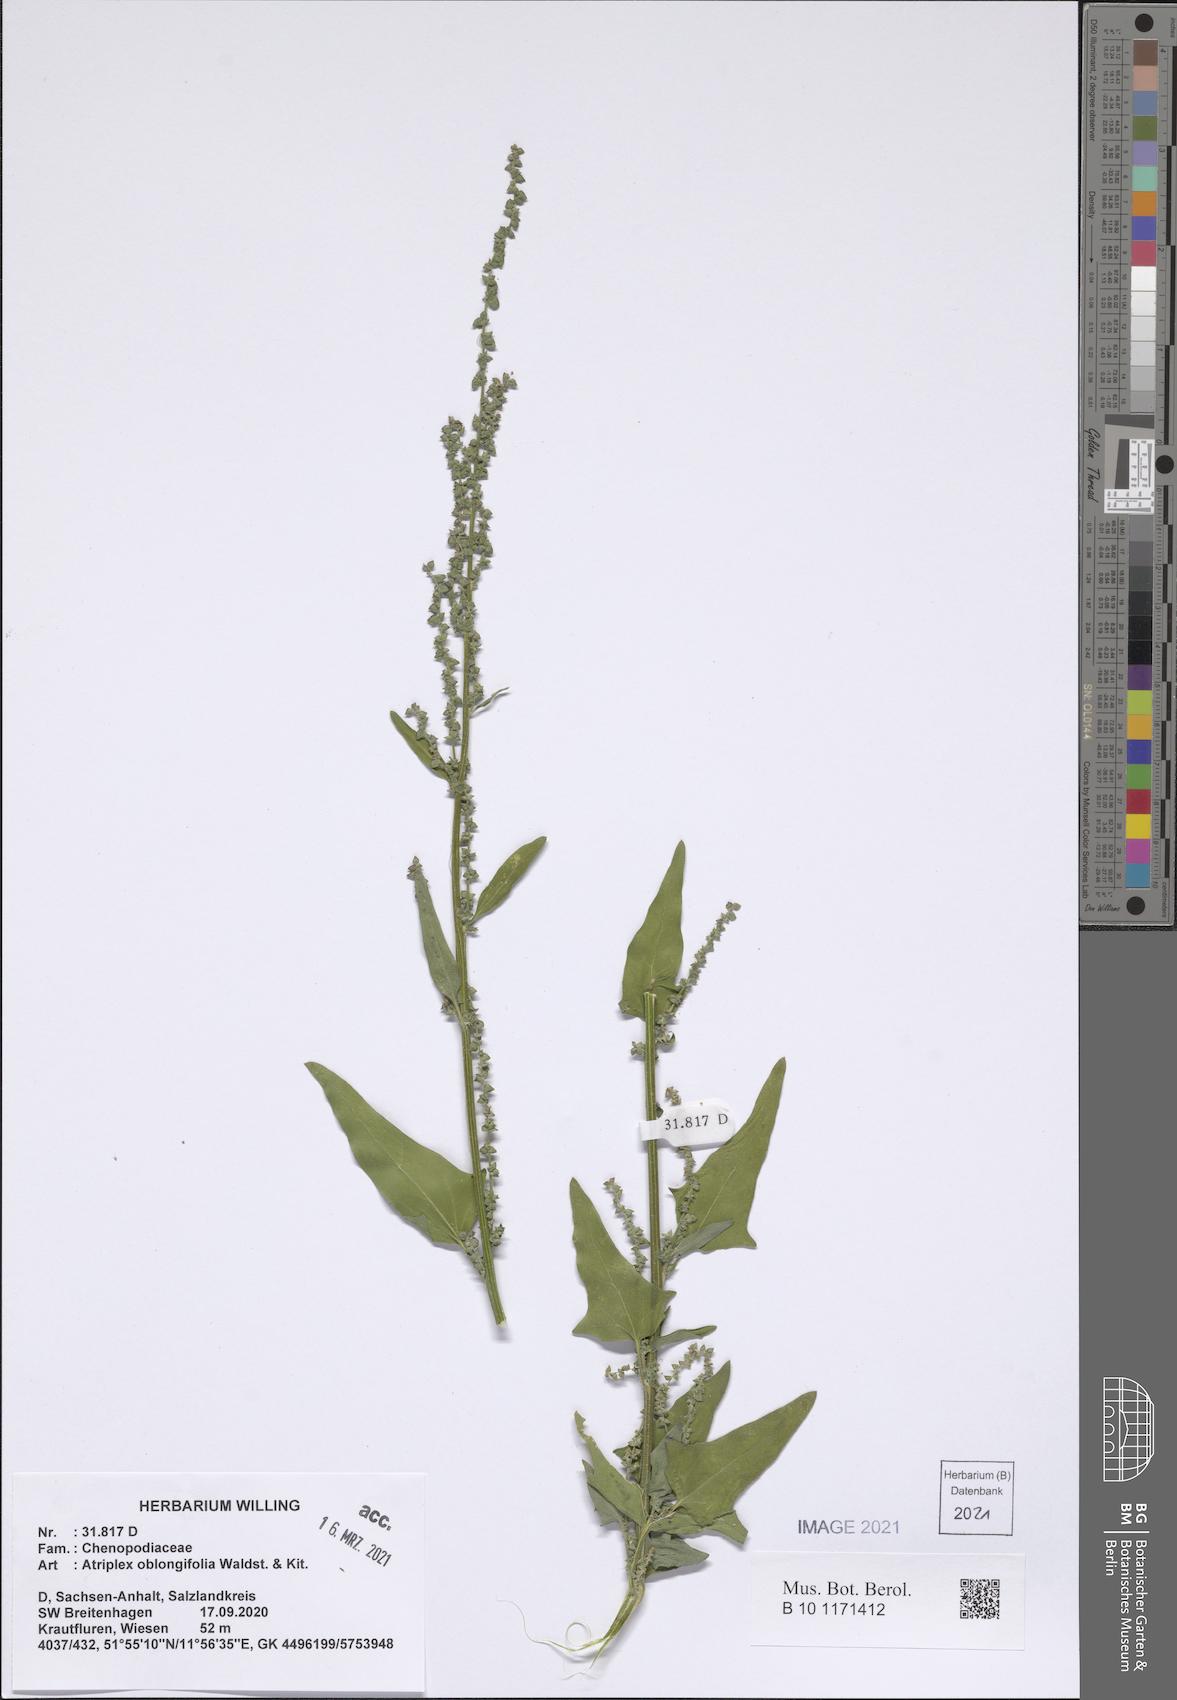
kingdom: Plantae
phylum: Tracheophyta
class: Magnoliopsida
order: Caryophyllales
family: Amaranthaceae
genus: Atriplex
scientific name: Atriplex oblongifolia
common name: Oblongleaf orache
